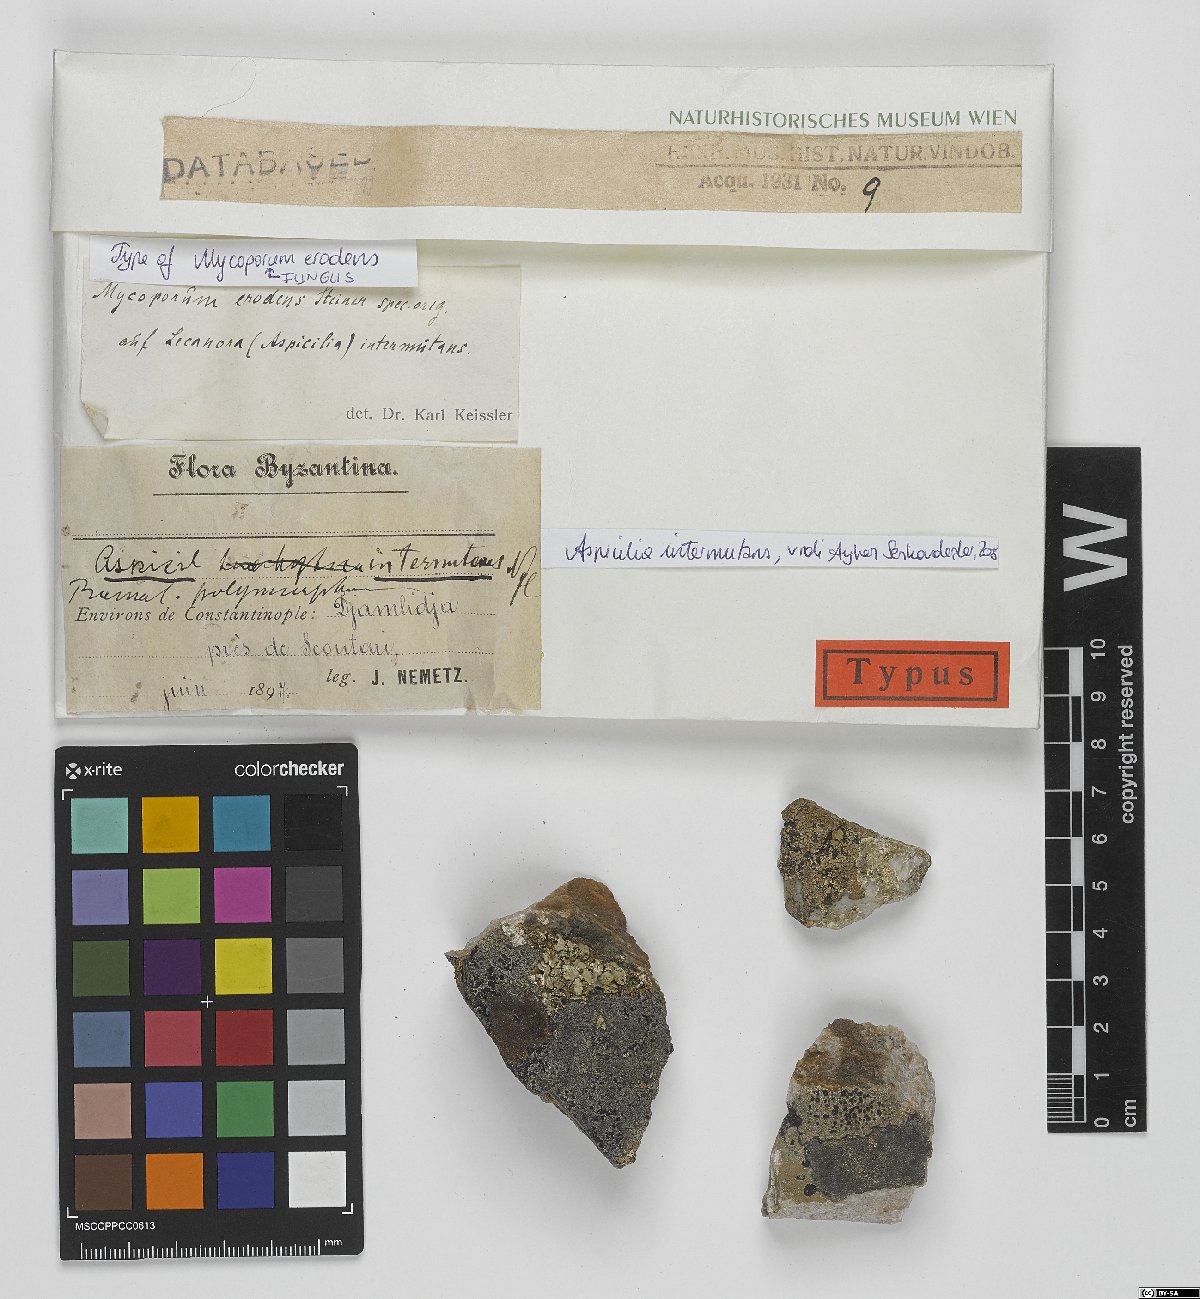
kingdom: Fungi
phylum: Ascomycota
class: Eurotiomycetes
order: Pyrenulales
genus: Mycoporum
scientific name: Mycoporum
